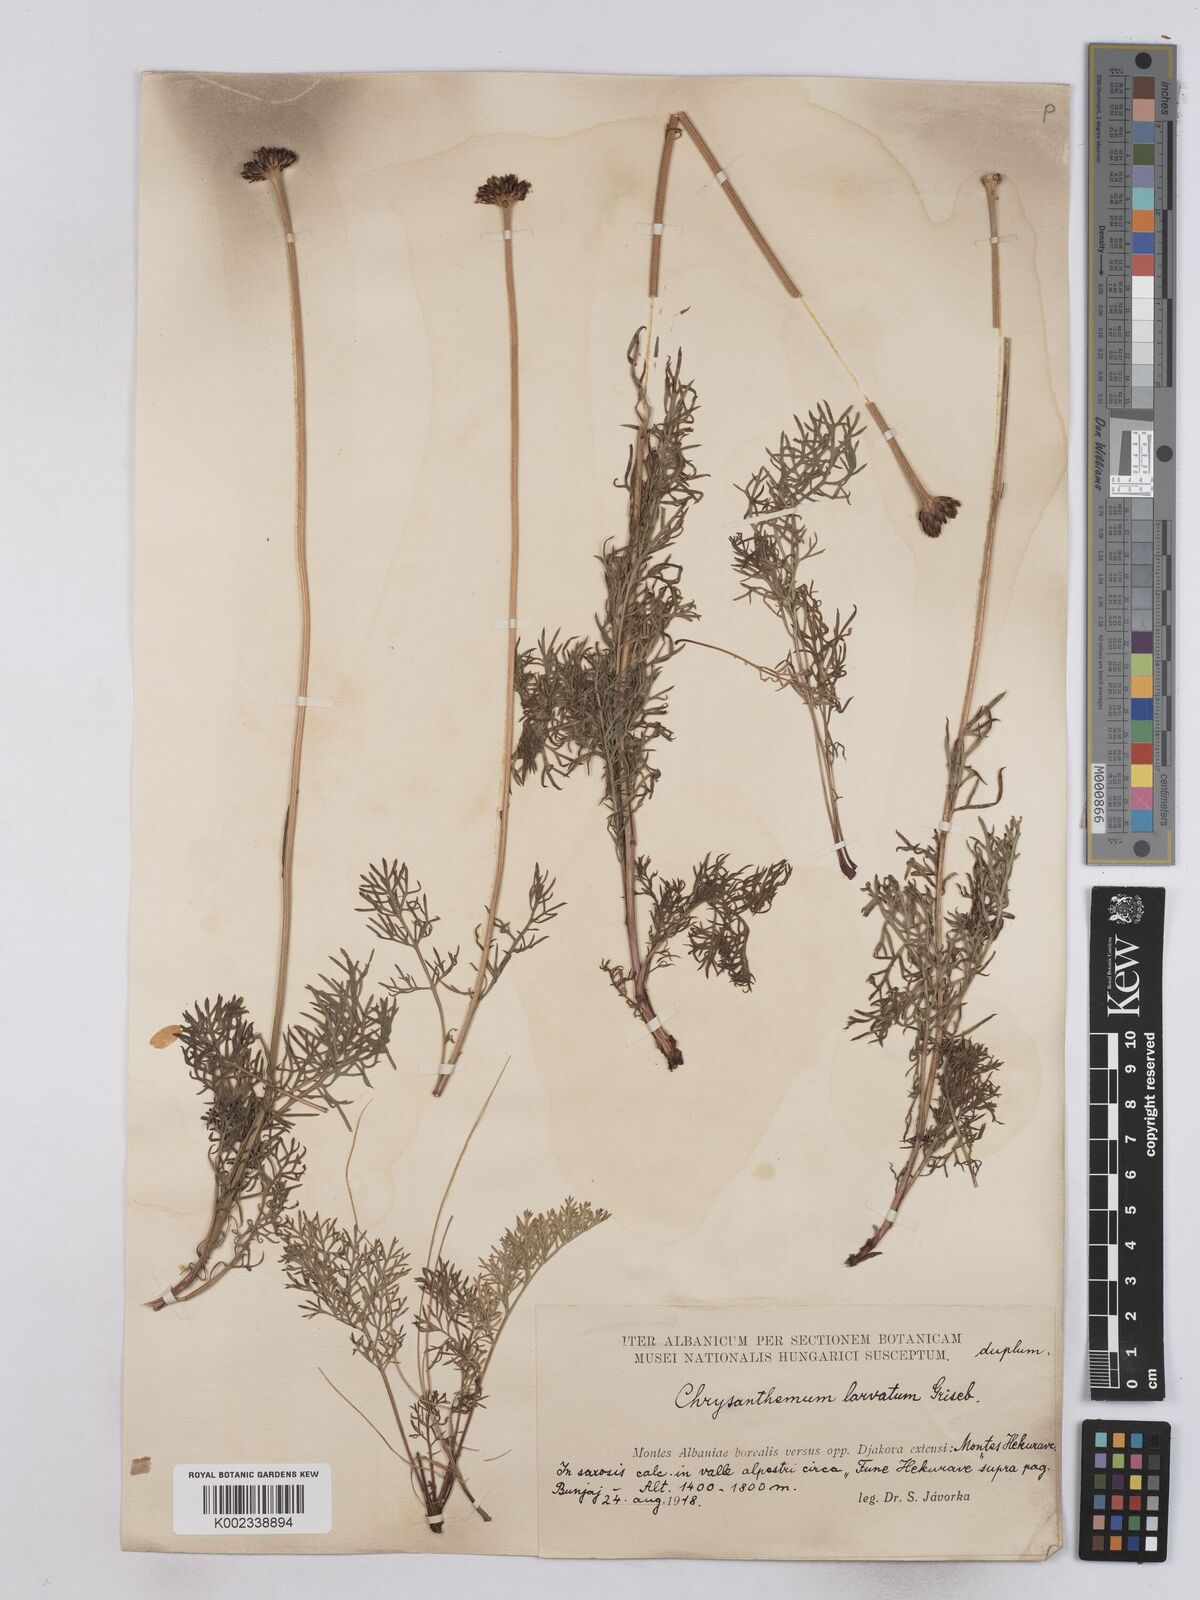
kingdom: Plantae
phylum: Tracheophyta
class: Magnoliopsida
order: Asterales
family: Asteraceae
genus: Leucanthemum
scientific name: Leucanthemum coronopifolium
